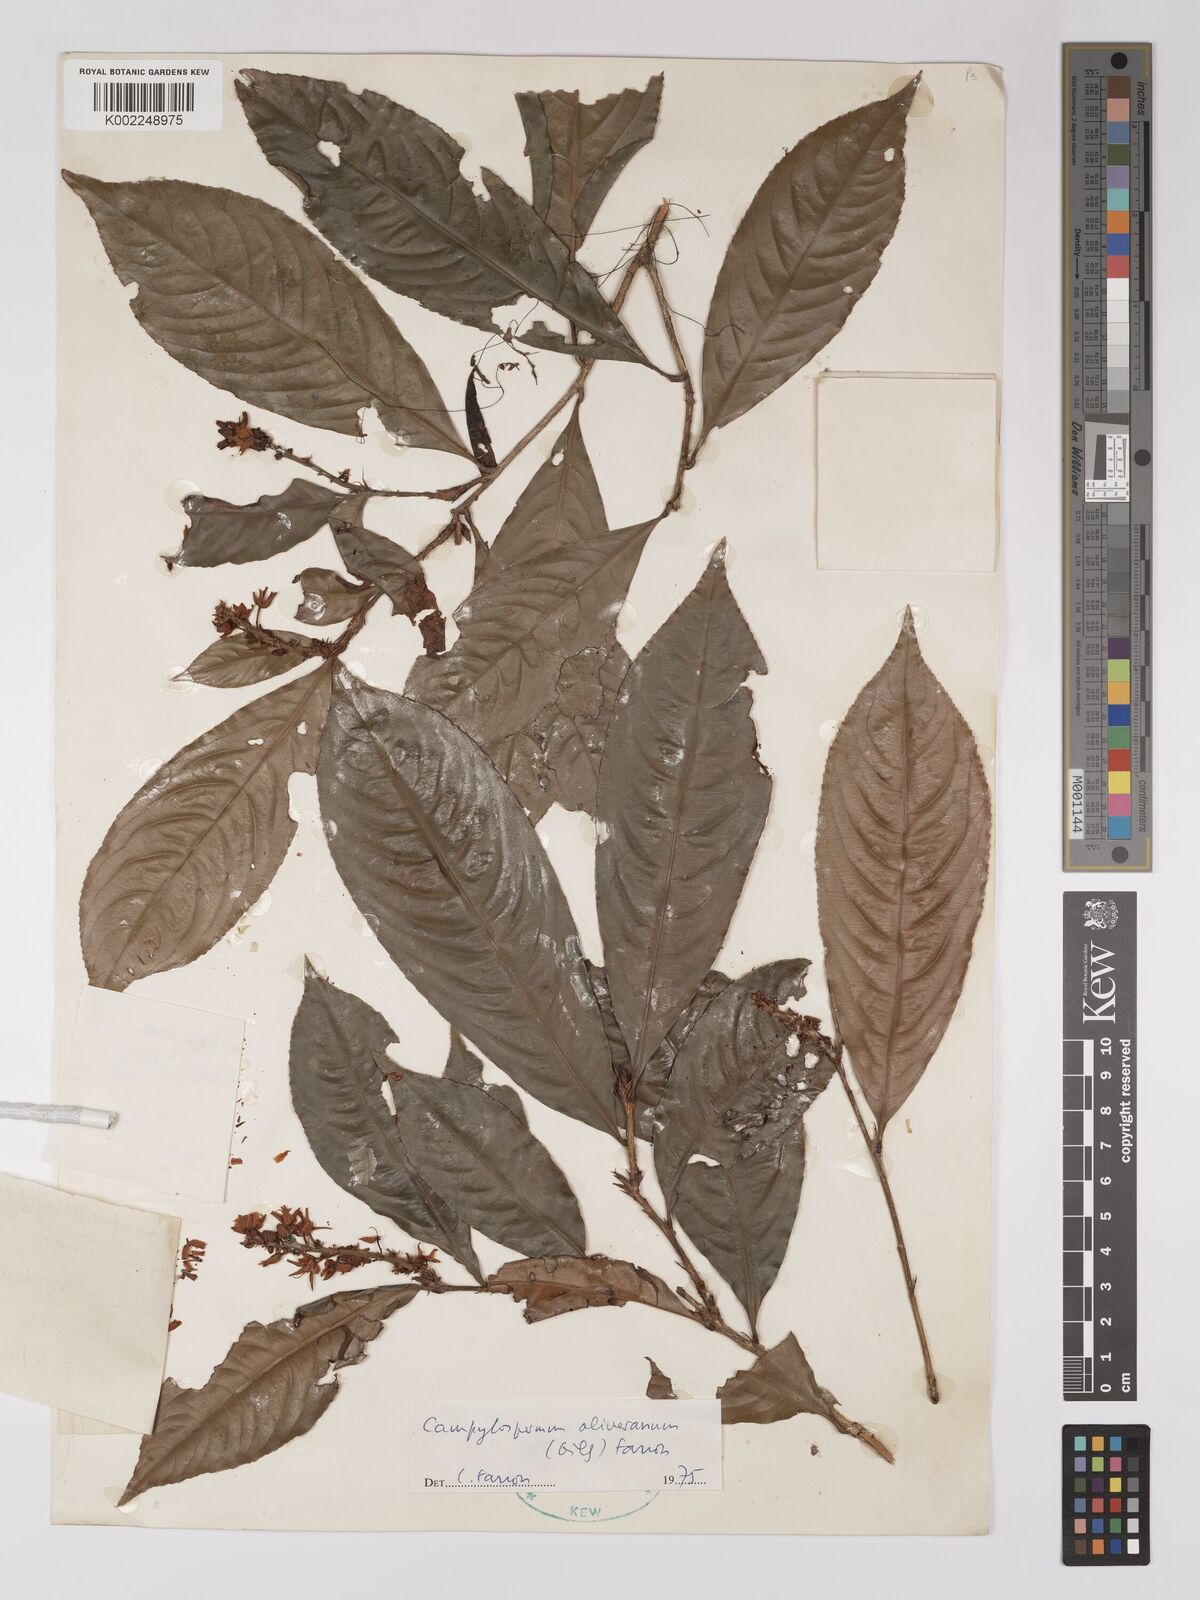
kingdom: Plantae
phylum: Tracheophyta
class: Magnoliopsida
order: Malpighiales
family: Ochnaceae
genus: Campylospermum
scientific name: Campylospermum oliverianum
